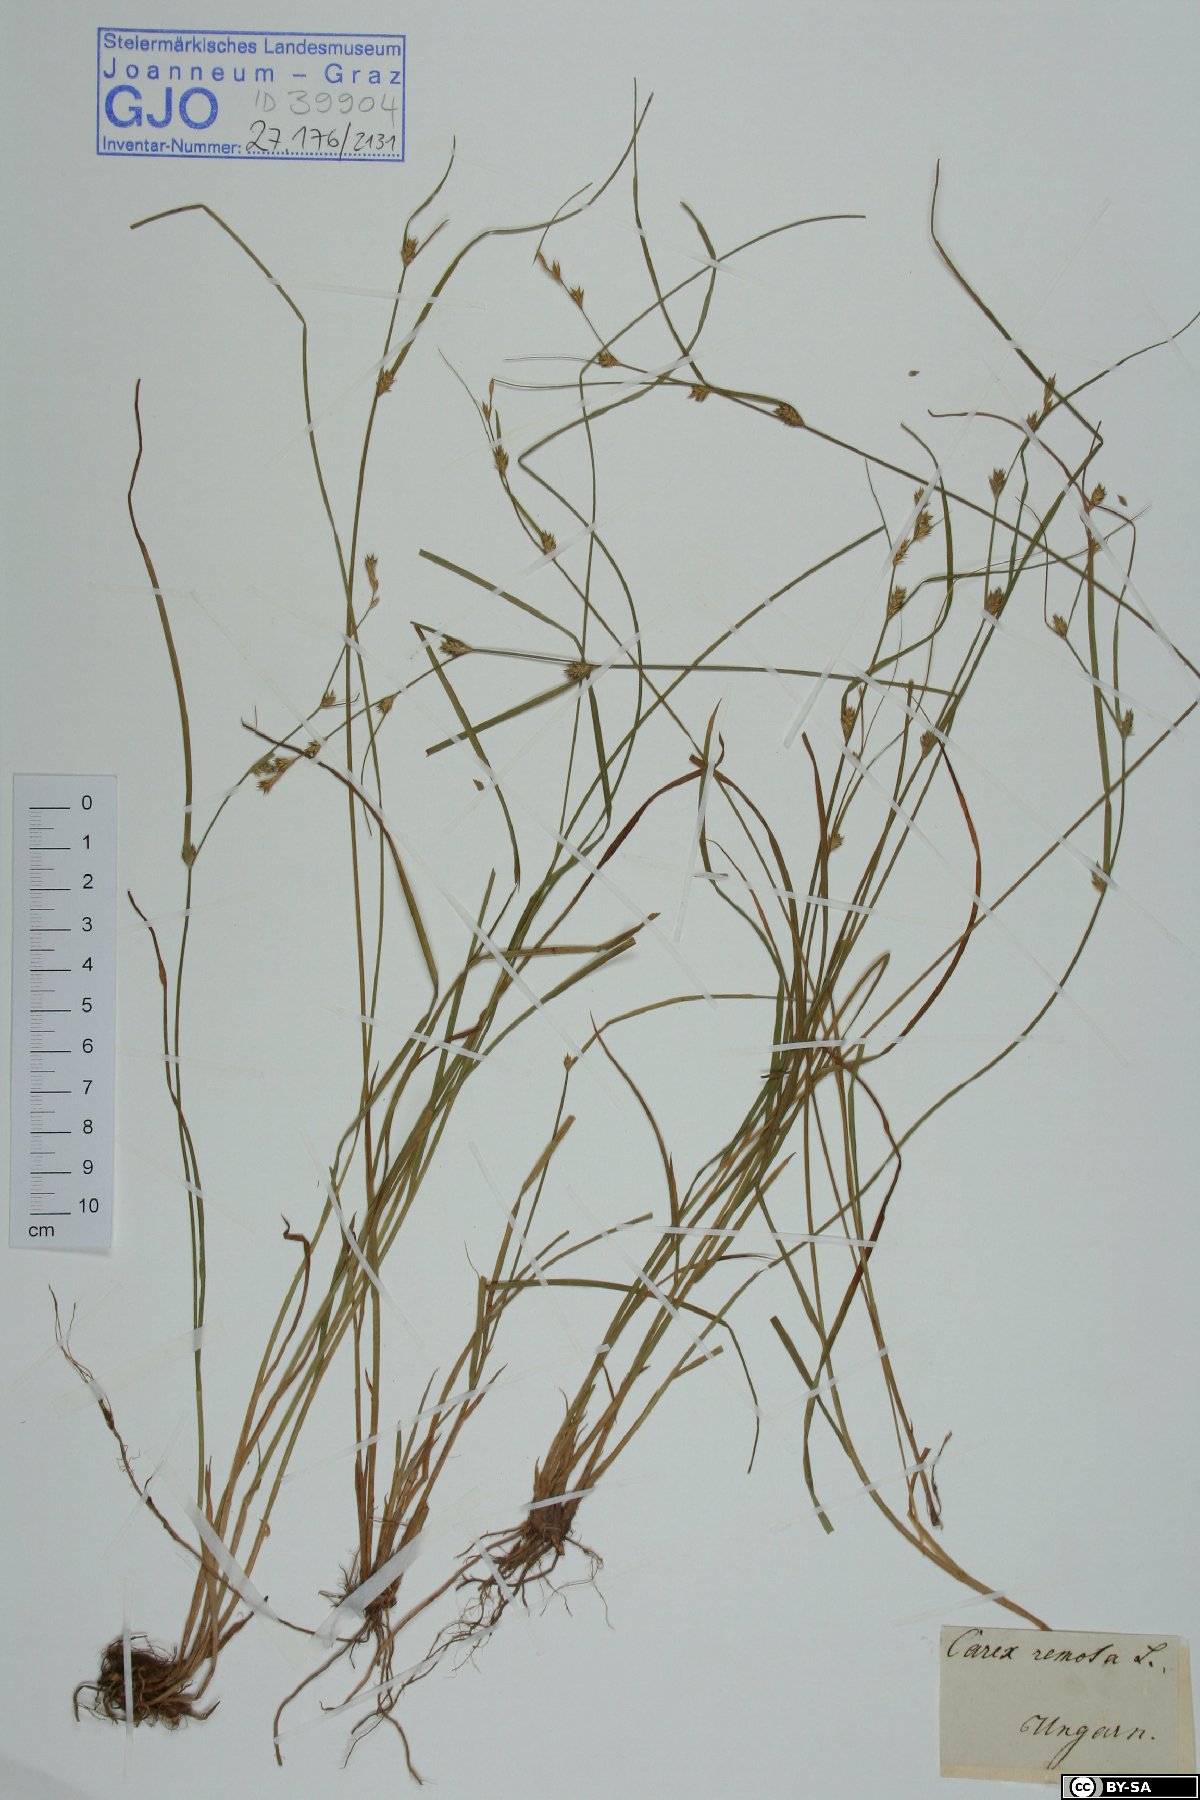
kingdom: Plantae
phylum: Tracheophyta
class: Liliopsida
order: Poales
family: Cyperaceae
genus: Carex
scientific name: Carex remota
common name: Remote sedge
